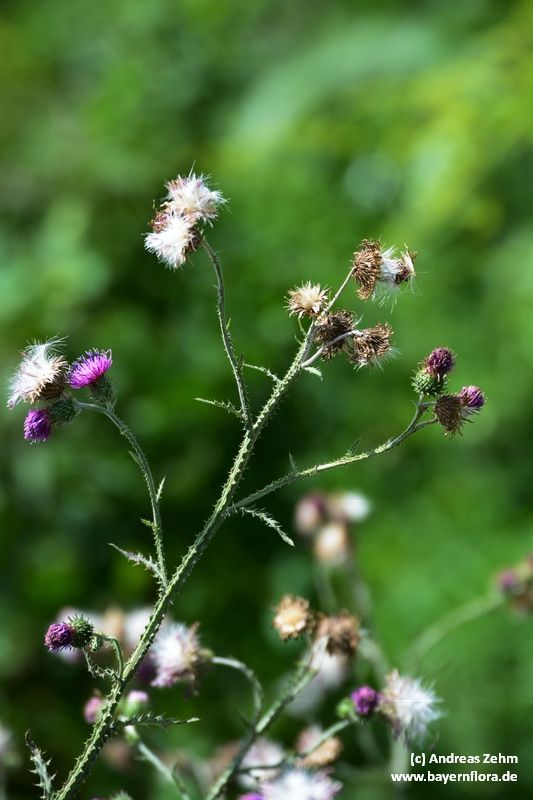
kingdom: Plantae
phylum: Tracheophyta
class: Magnoliopsida
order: Asterales
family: Asteraceae
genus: Carduus
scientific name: Carduus crispus
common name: Welted thistle
